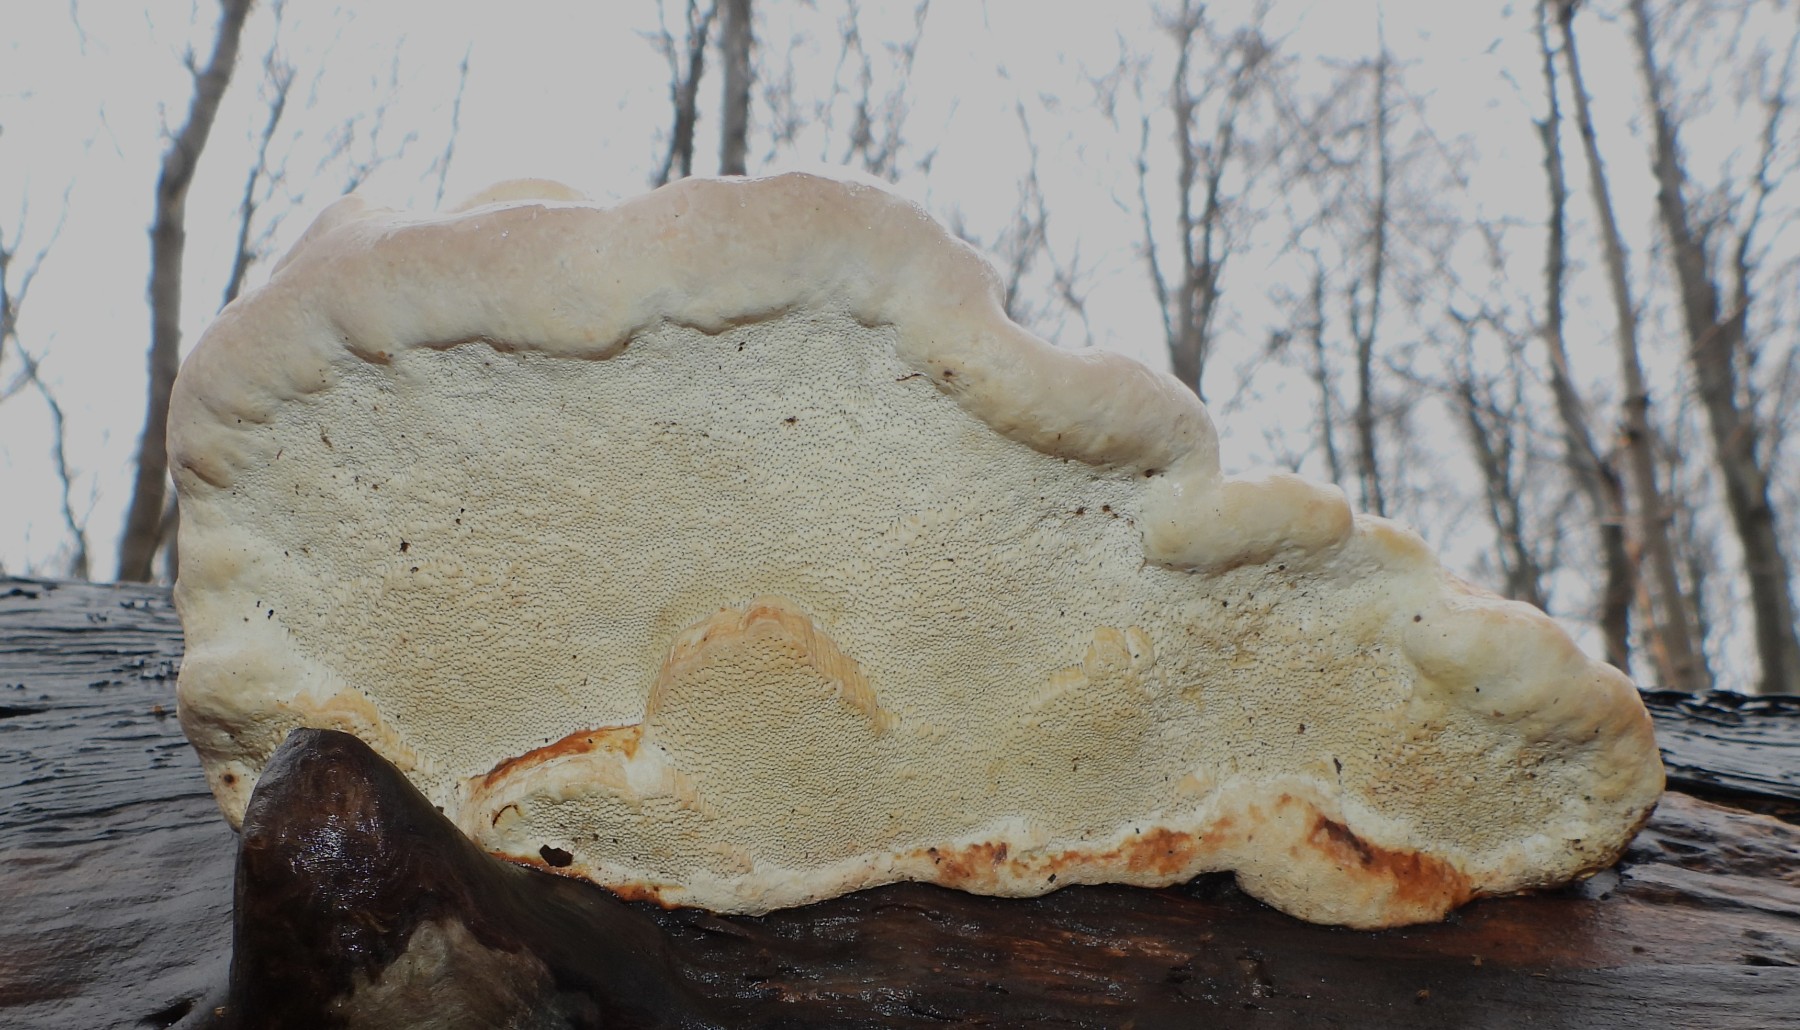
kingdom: Fungi
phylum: Basidiomycota
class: Agaricomycetes
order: Polyporales
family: Fomitopsidaceae
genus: Fomitopsis
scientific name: Fomitopsis pinicola
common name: randbæltet hovporesvamp
